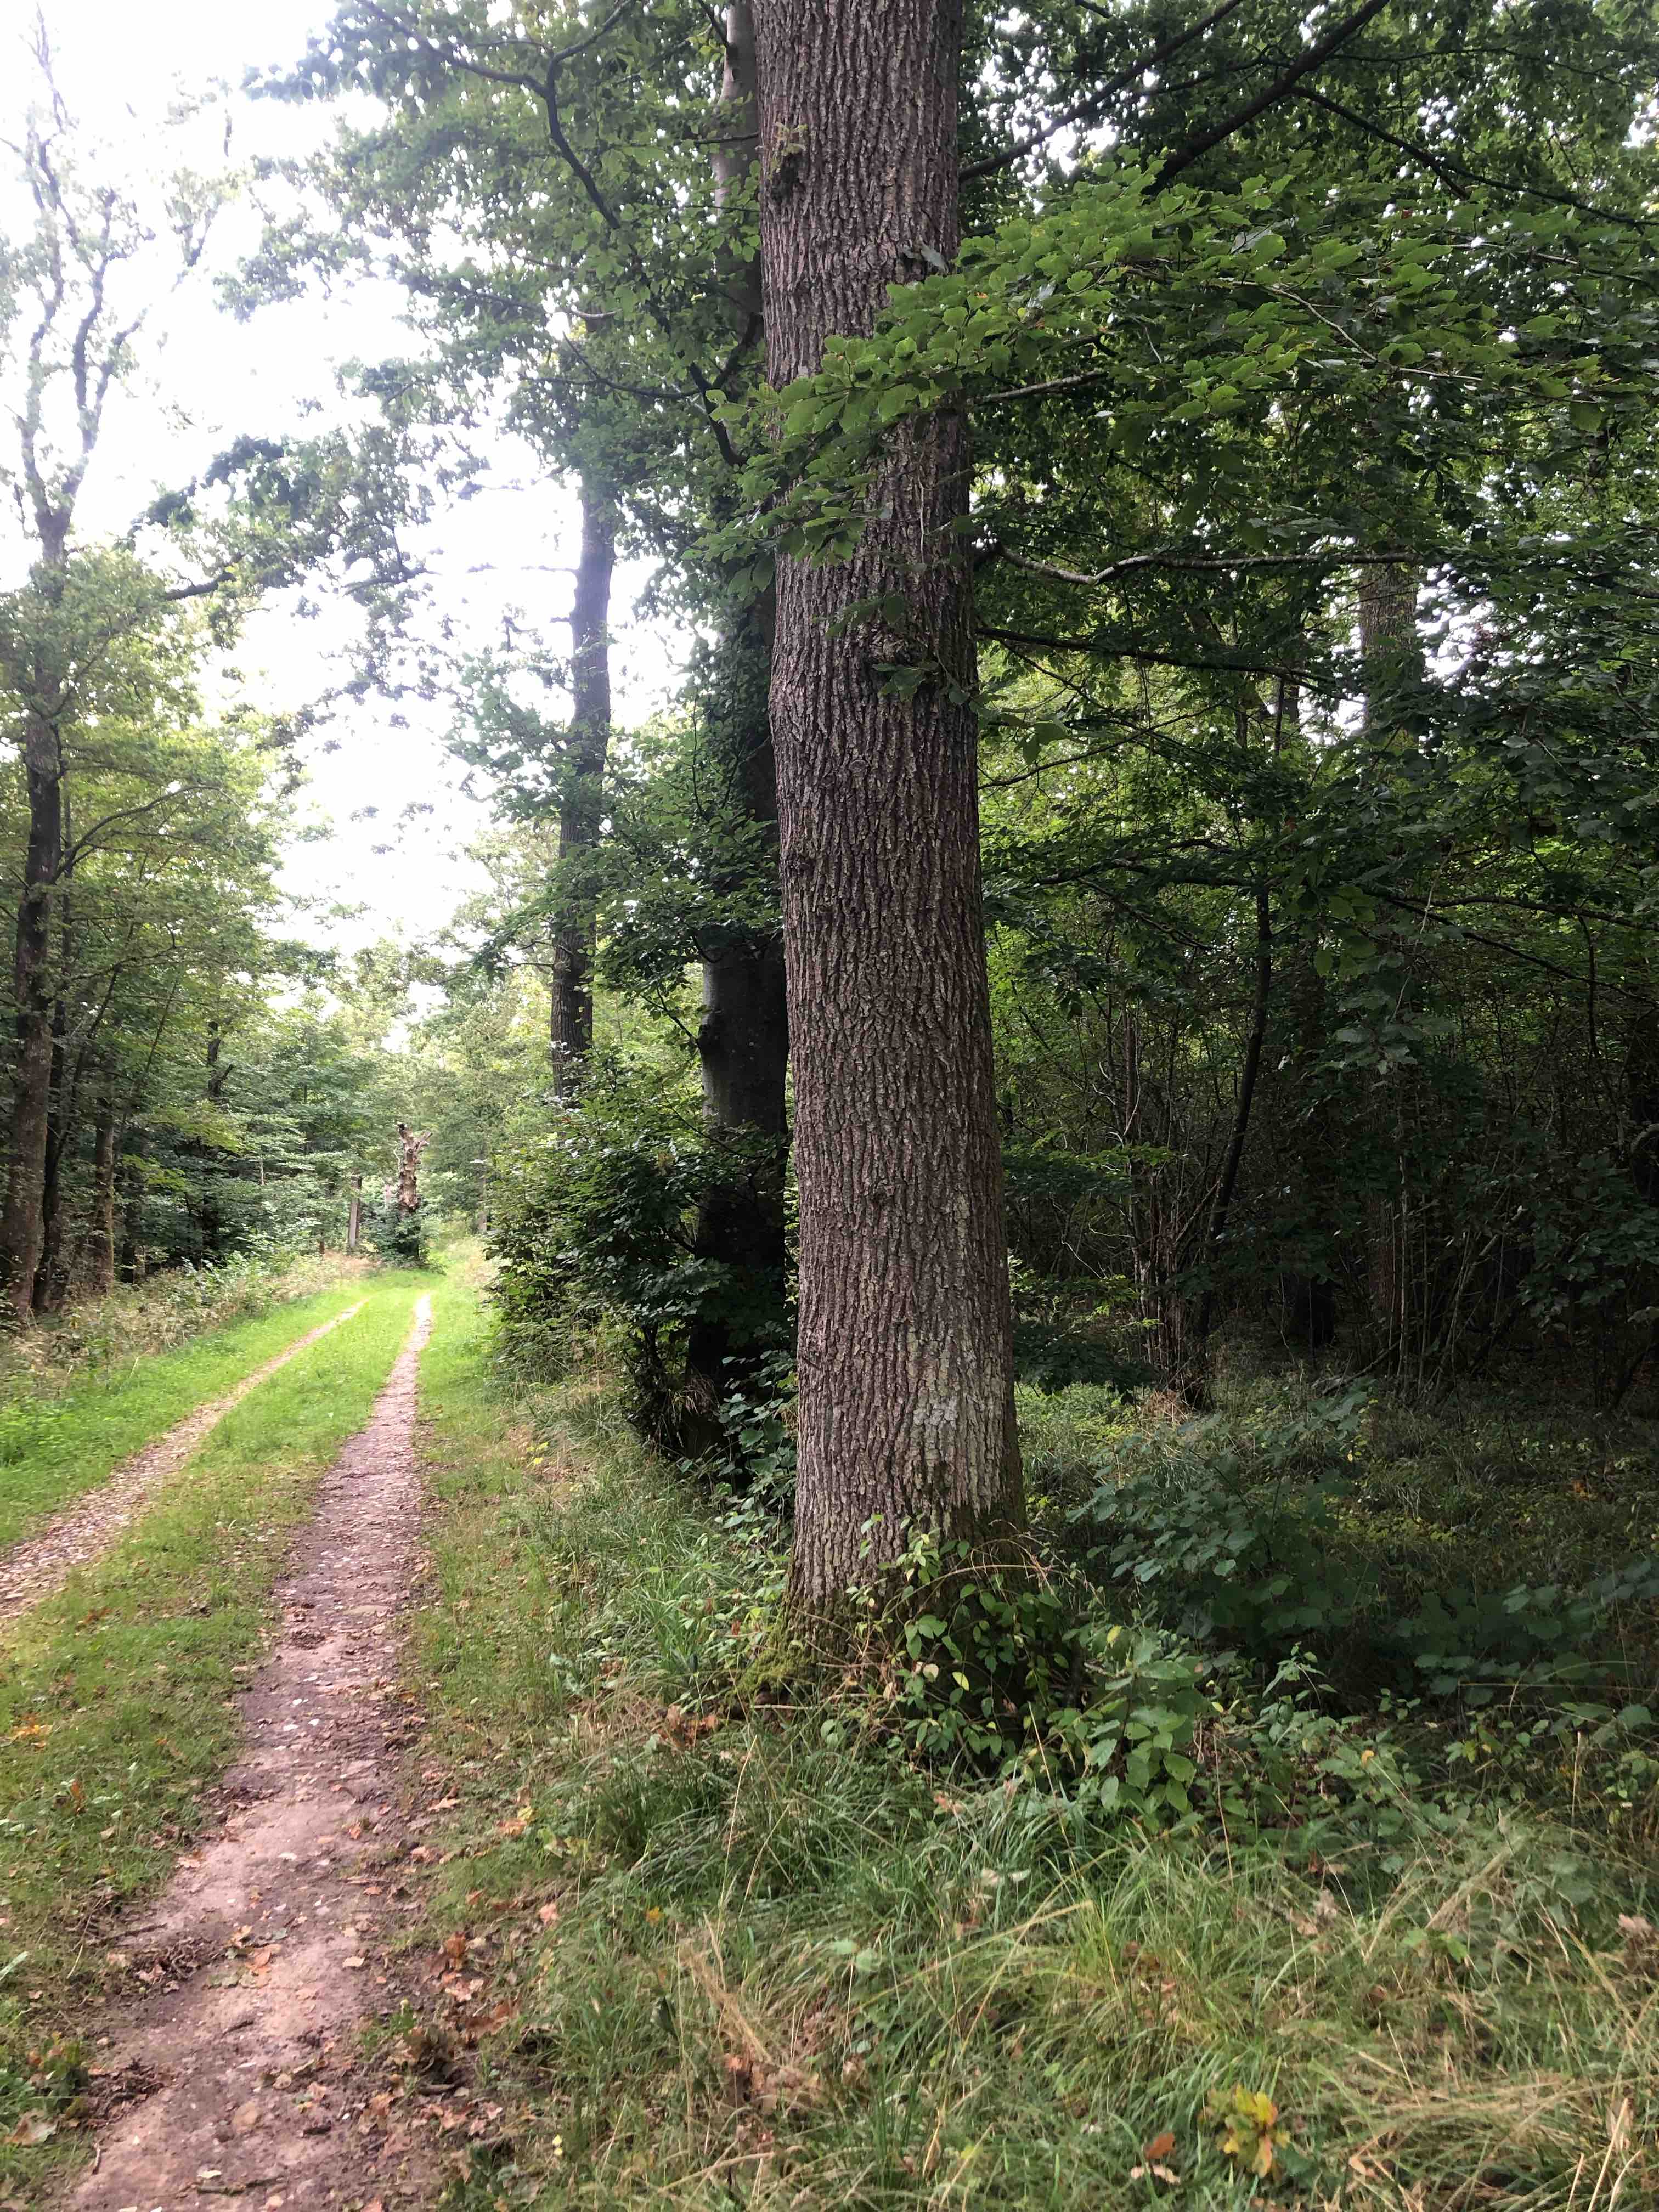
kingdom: Fungi
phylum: Ascomycota
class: Pezizomycetes
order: Pezizales
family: Otideaceae
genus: Otidea
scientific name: Otidea onotica
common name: æsel-ørebæger
